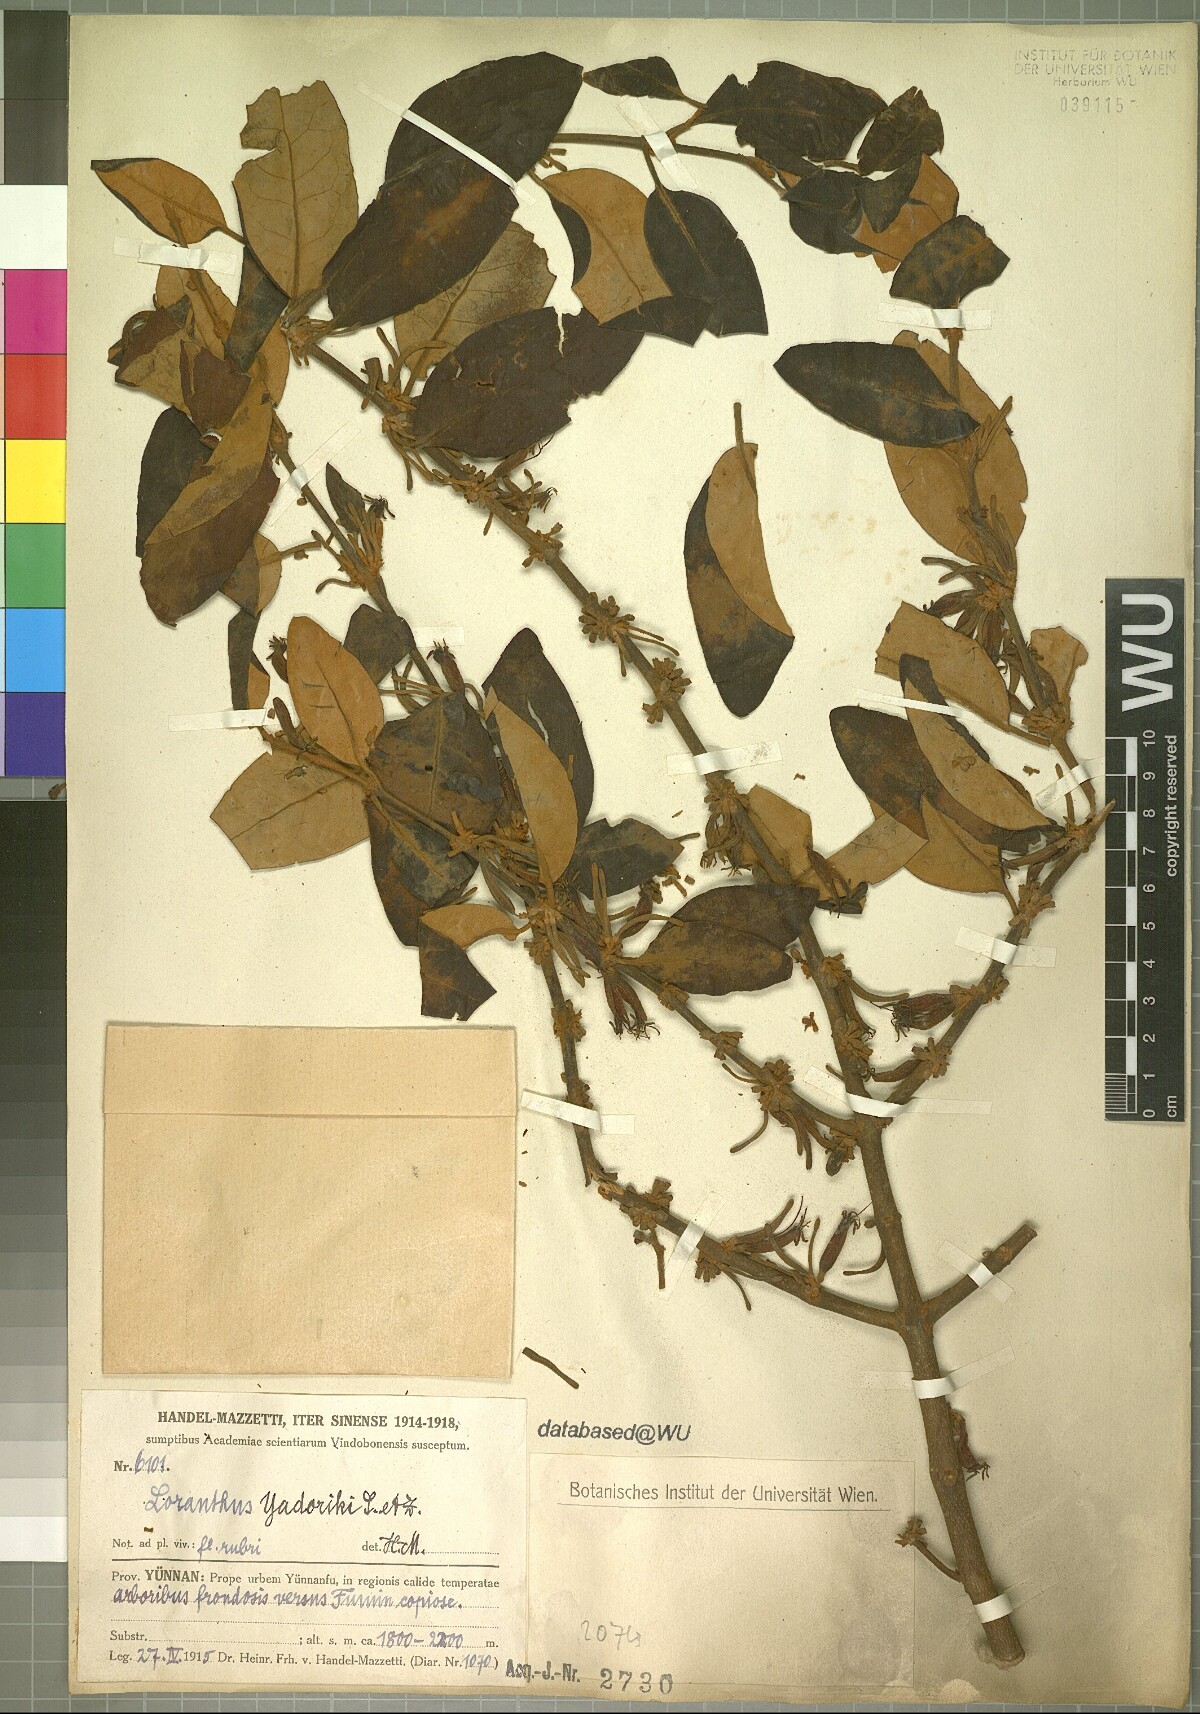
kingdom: Plantae
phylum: Tracheophyta
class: Magnoliopsida
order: Santalales
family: Loranthaceae
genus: Taxillus
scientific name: Taxillus sutchuenensis
